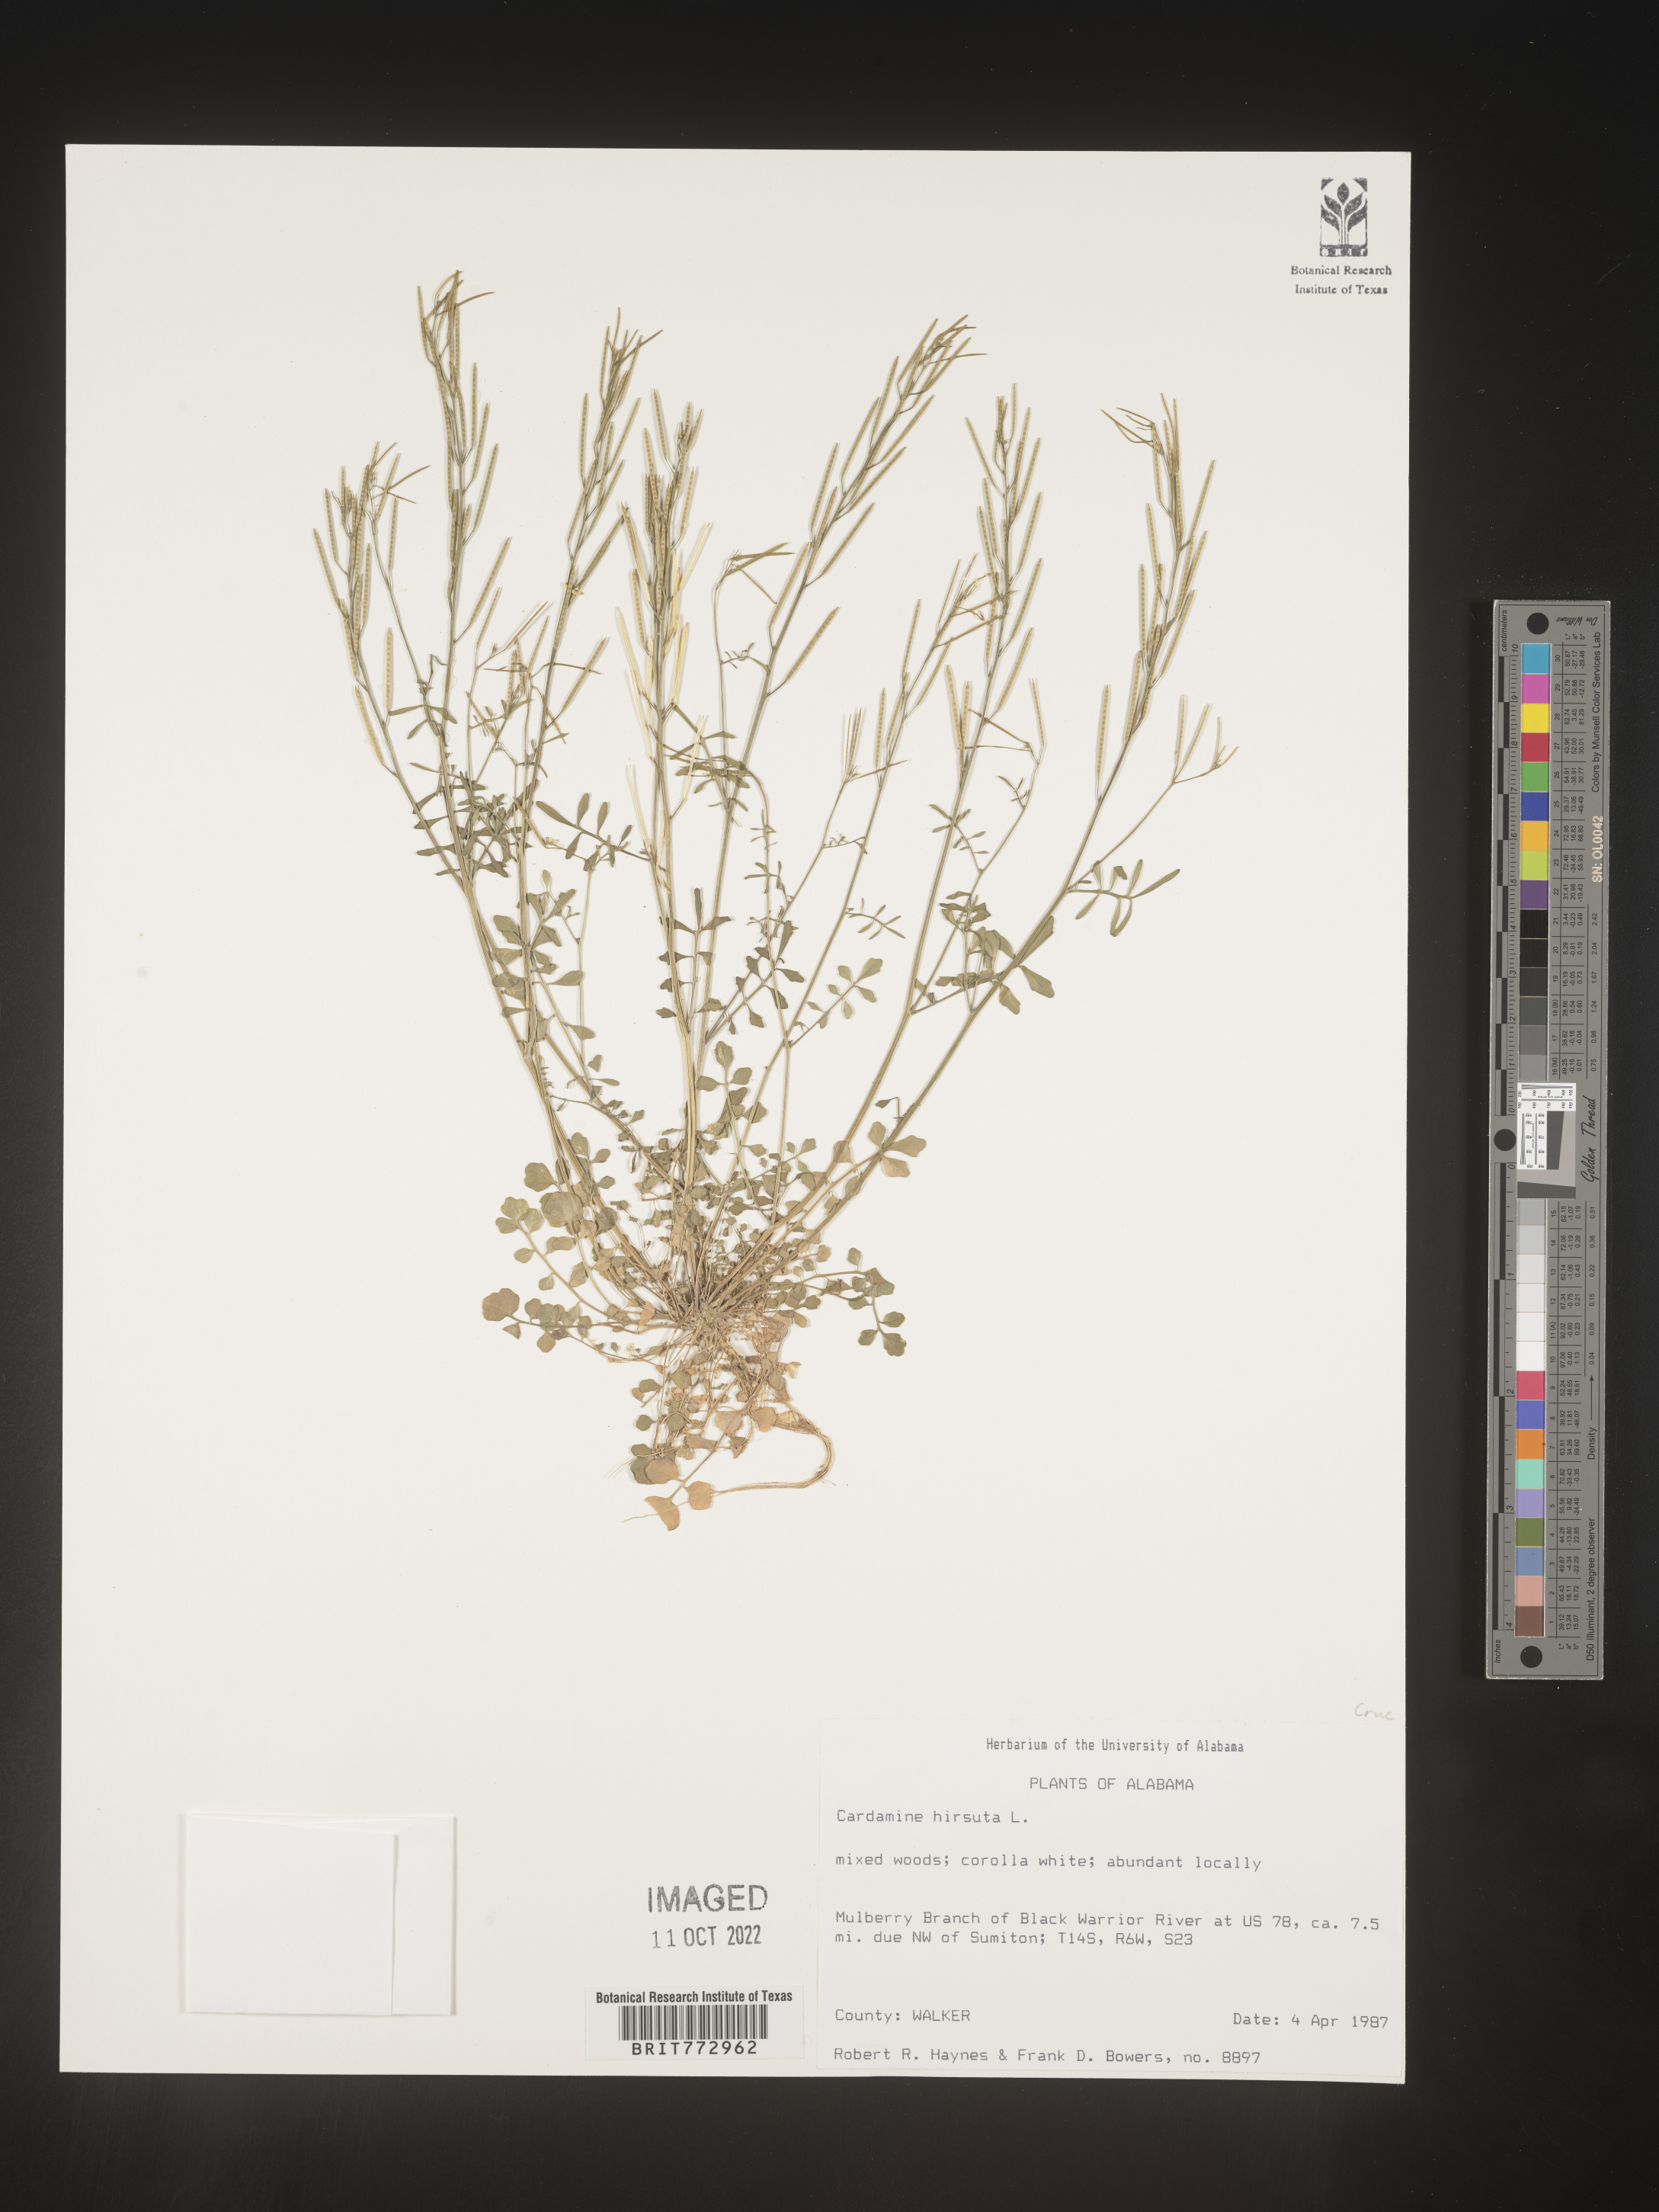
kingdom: Plantae
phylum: Tracheophyta
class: Magnoliopsida
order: Brassicales
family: Brassicaceae
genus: Cardamine
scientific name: Cardamine hirsuta
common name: Hairy bittercress
